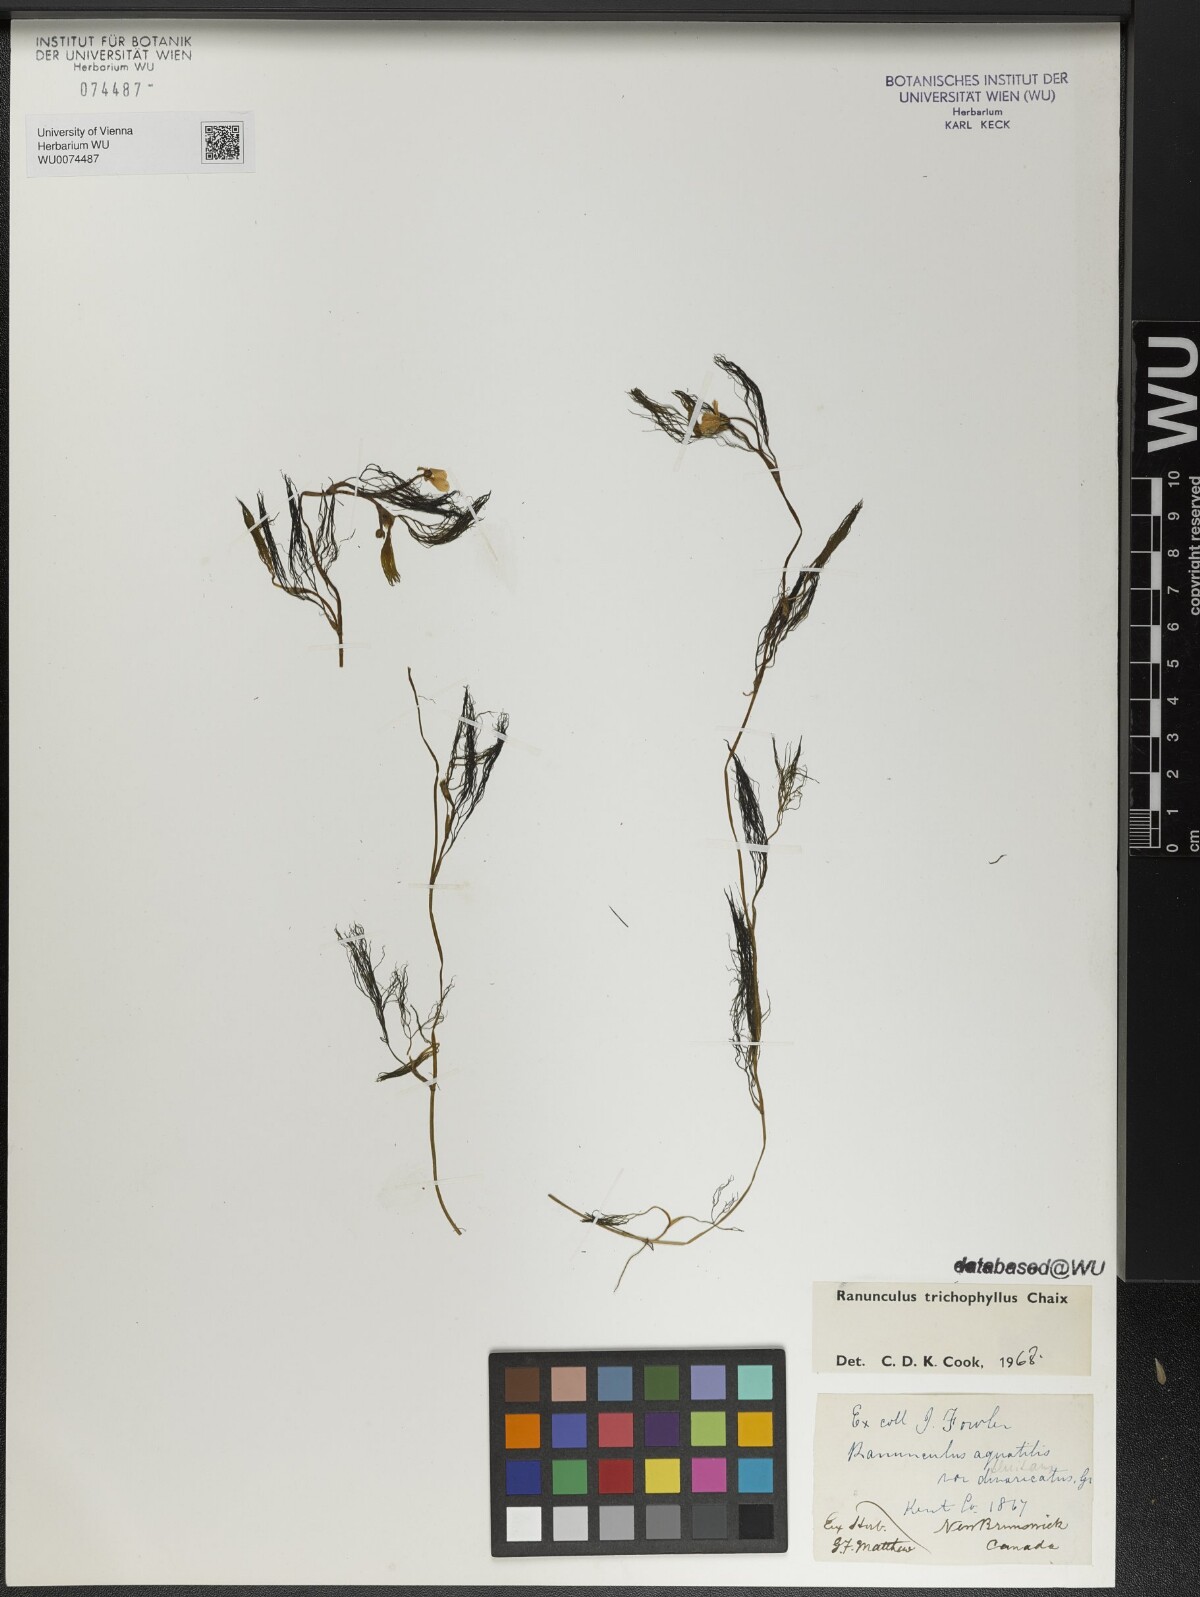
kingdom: Plantae
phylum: Tracheophyta
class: Magnoliopsida
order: Ranunculales
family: Ranunculaceae
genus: Ranunculus
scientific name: Ranunculus trichophyllus
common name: Thread-leaved water-crowfoot
